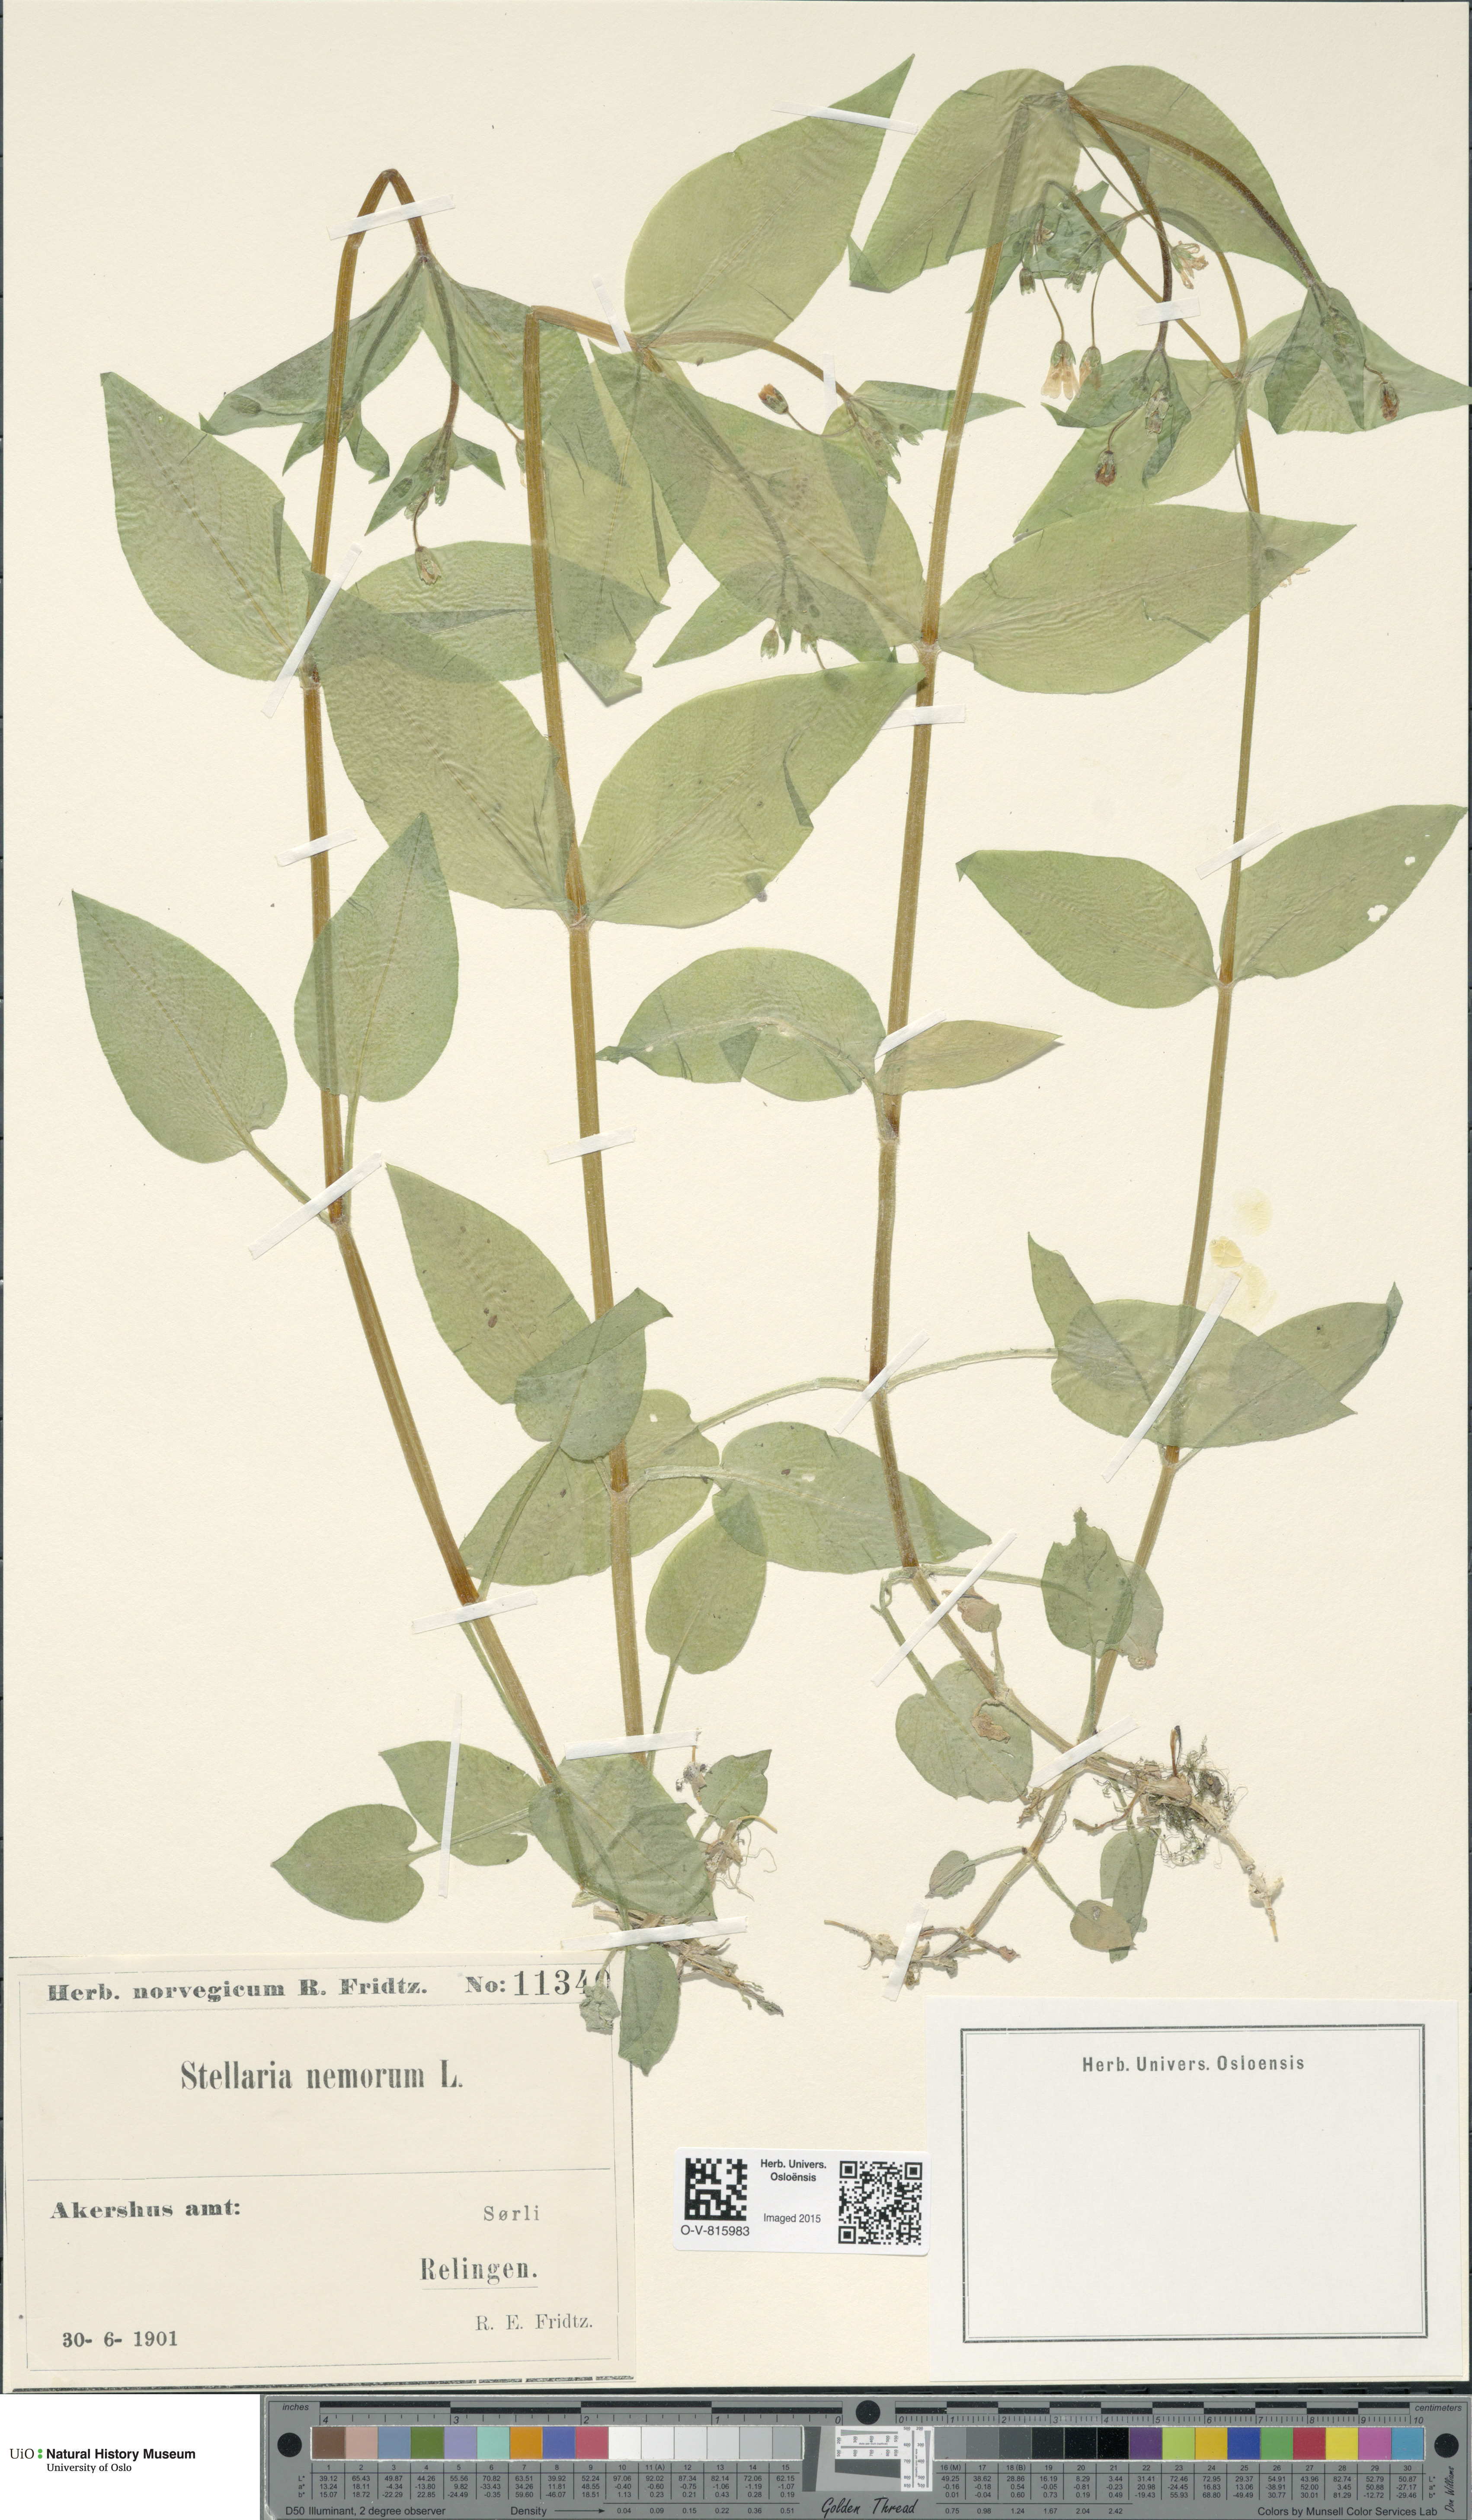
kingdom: Plantae
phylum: Tracheophyta
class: Magnoliopsida
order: Caryophyllales
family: Caryophyllaceae
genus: Stellaria
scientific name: Stellaria nemorum
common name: Wood stitchwort
